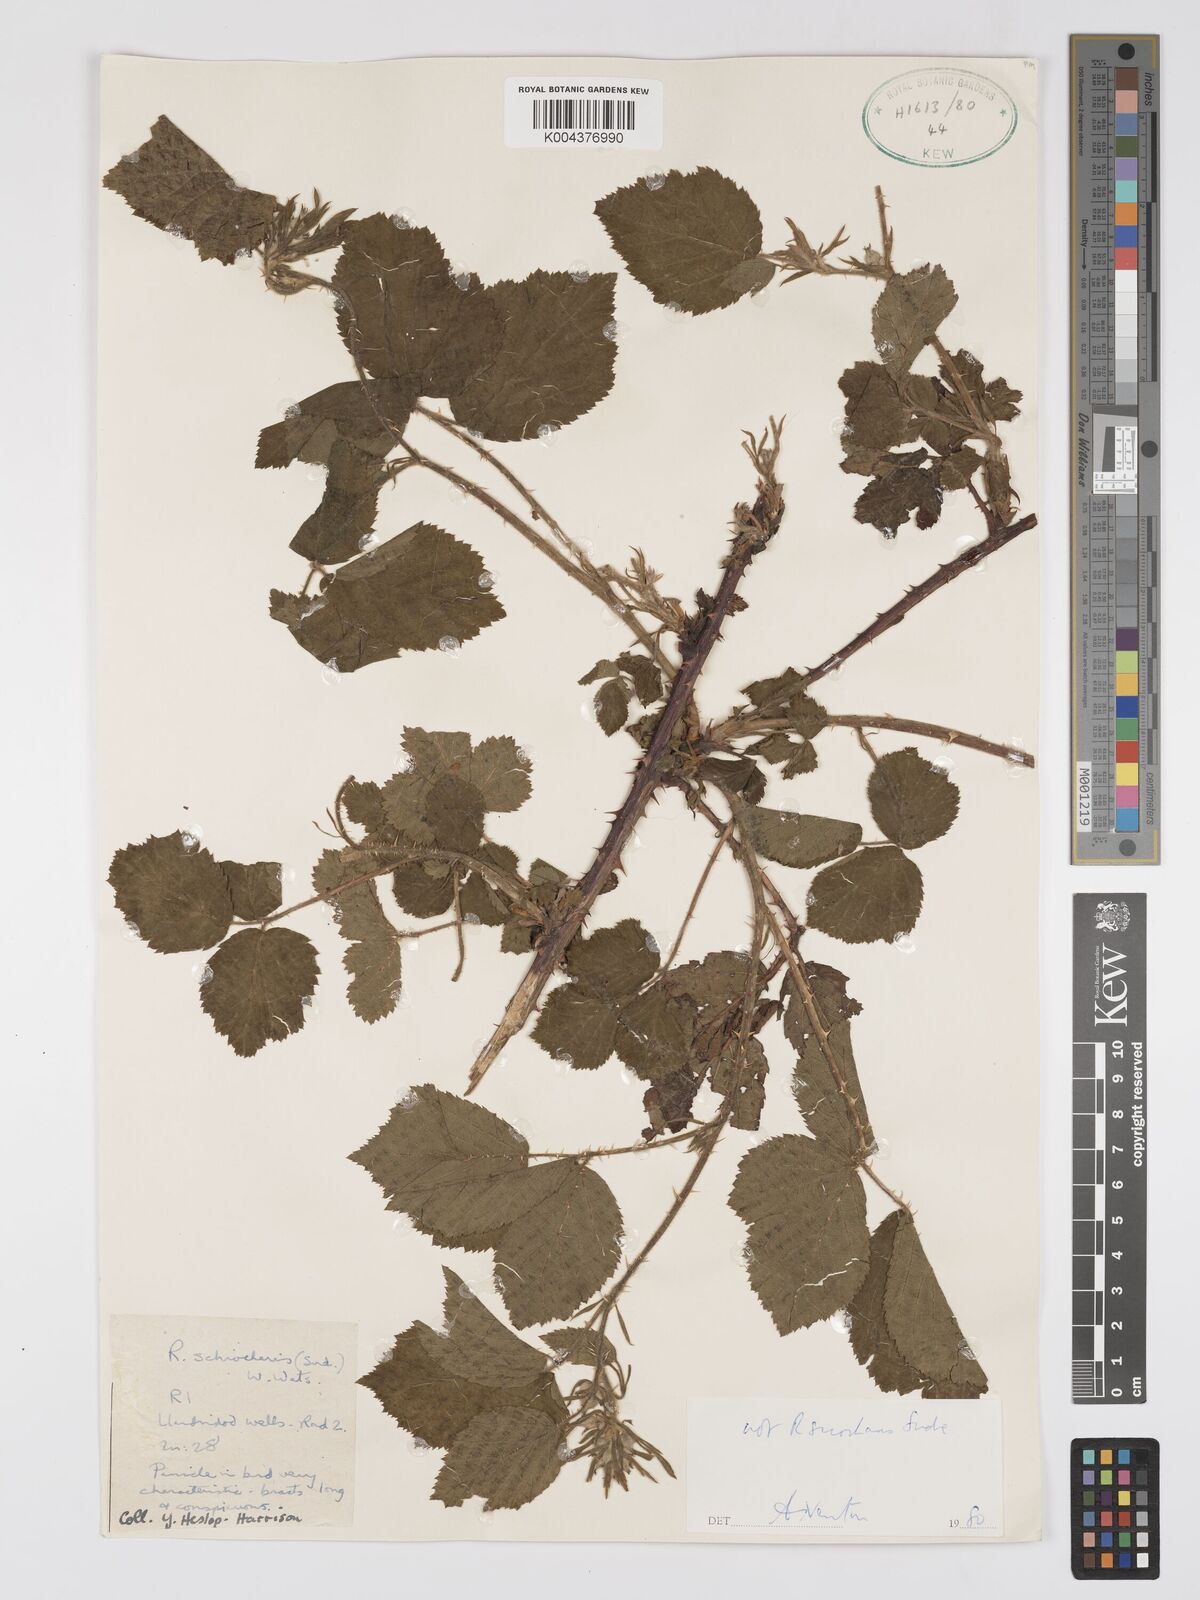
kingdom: Plantae
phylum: Tracheophyta
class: Magnoliopsida
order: Rosales
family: Rosaceae
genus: Rubus
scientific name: Rubus sciocharis
